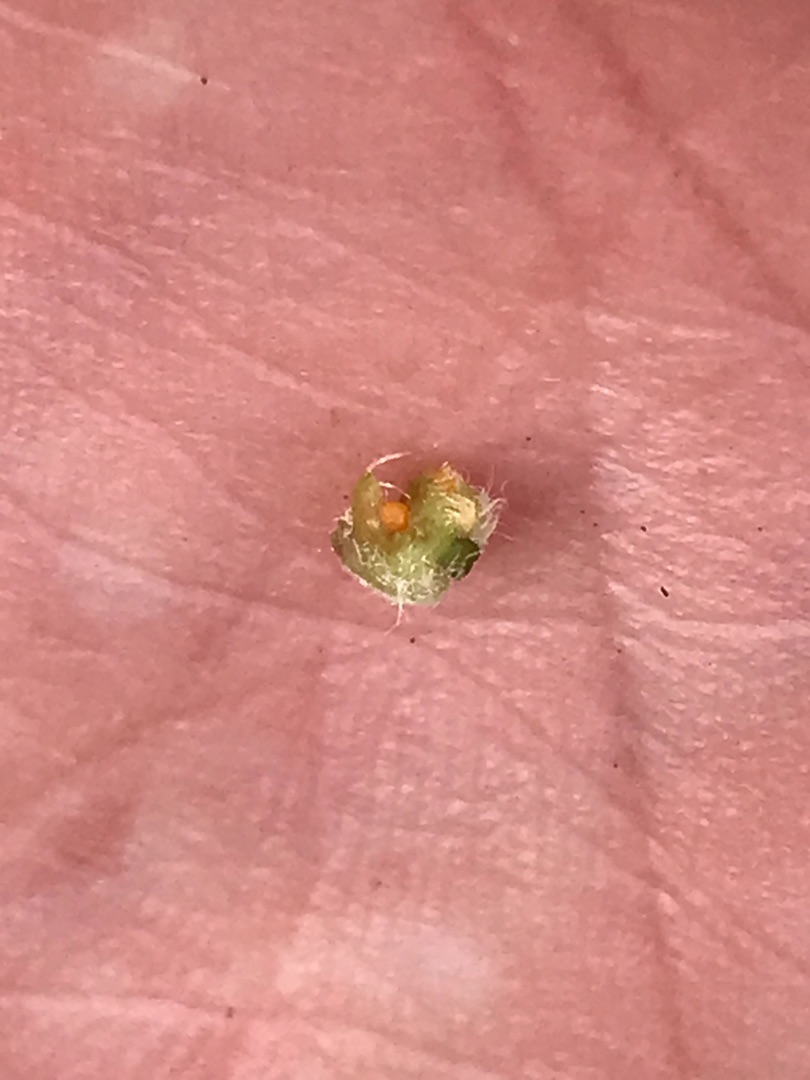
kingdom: Animalia
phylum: Arthropoda
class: Insecta
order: Diptera
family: Cecidomyiidae
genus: Jaapiella
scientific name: Jaapiella veronicae
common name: Ærenprisgalmyg
